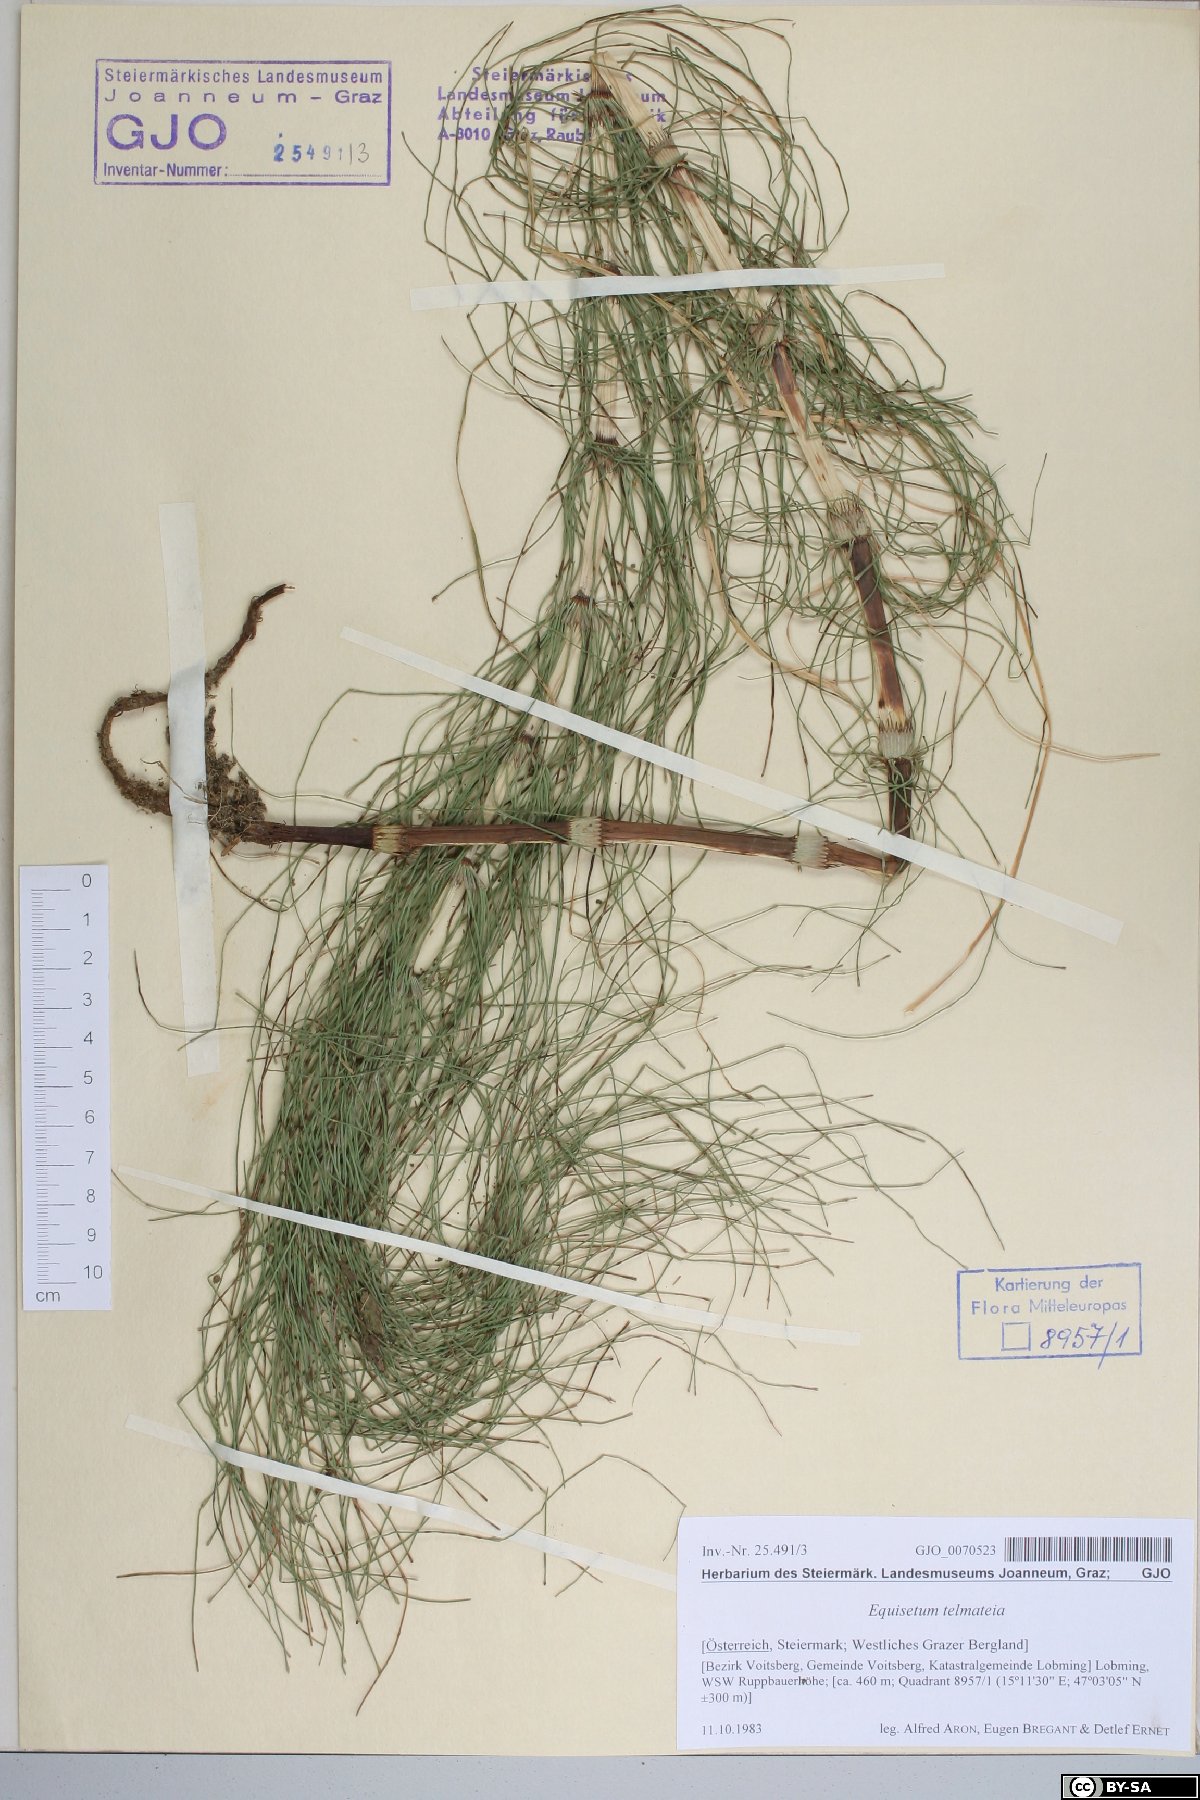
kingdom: Plantae
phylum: Tracheophyta
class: Polypodiopsida
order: Equisetales
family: Equisetaceae
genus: Equisetum
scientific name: Equisetum telmateia
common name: Great horsetail
